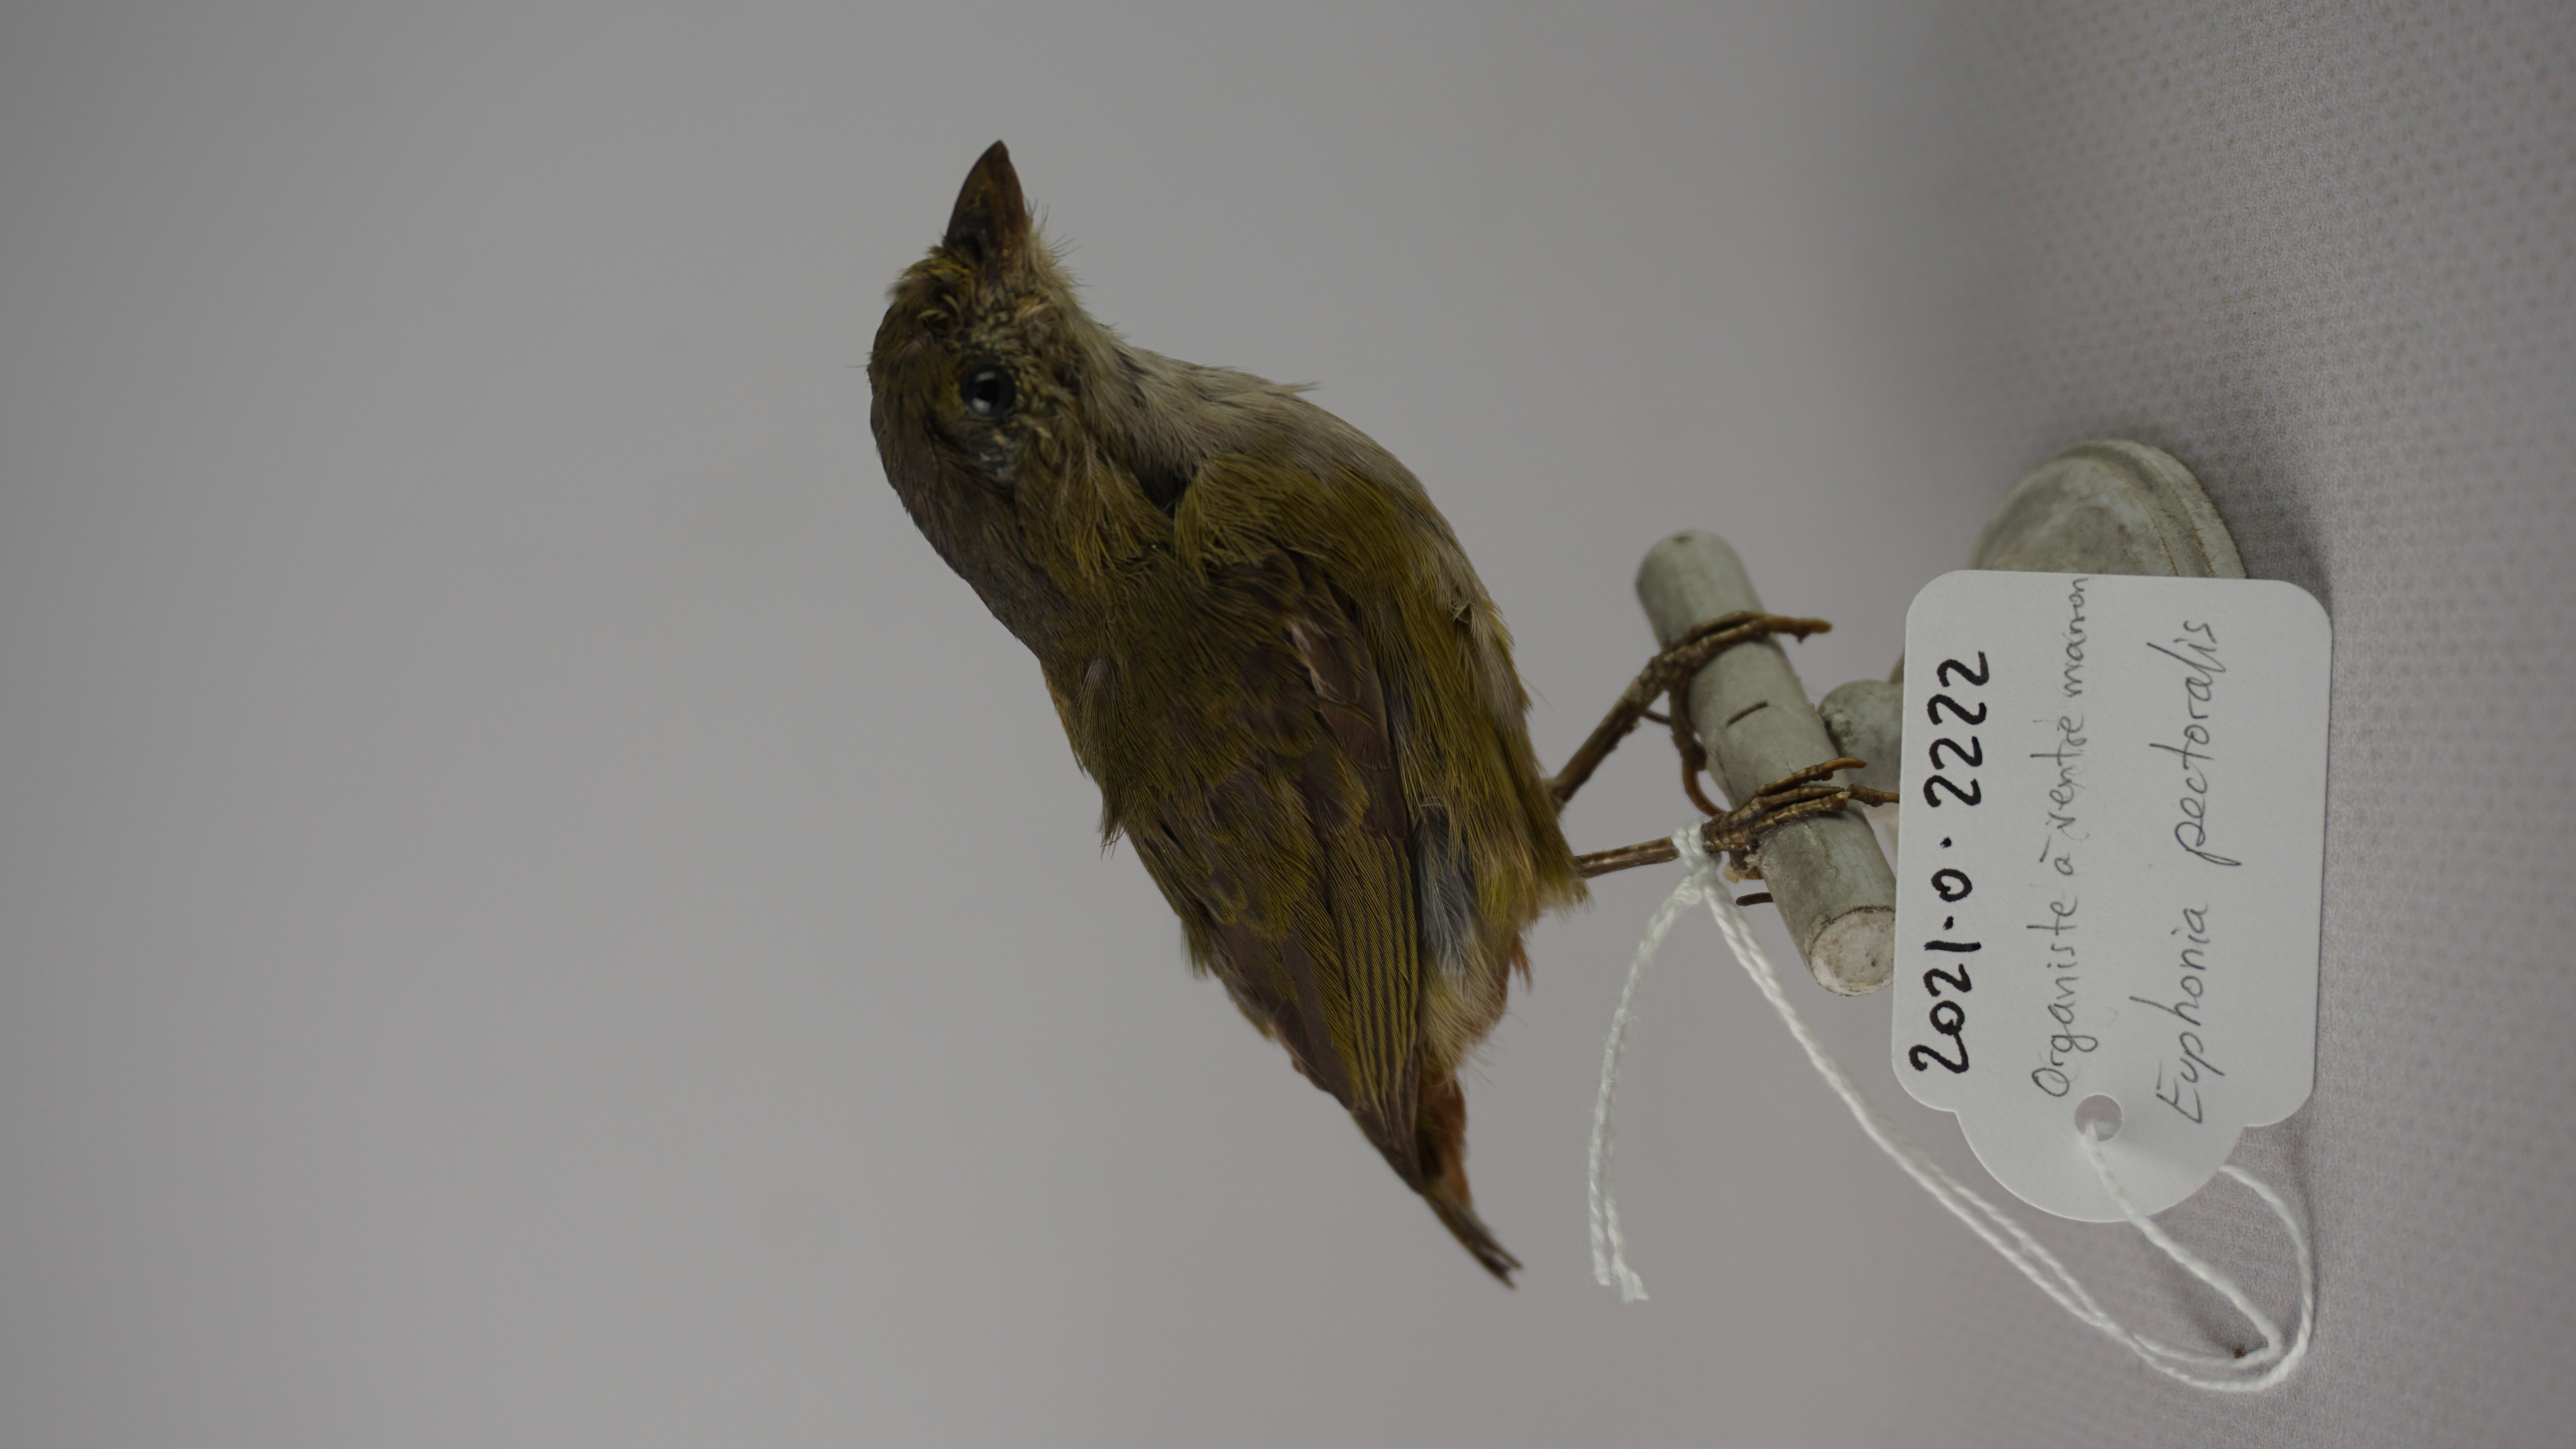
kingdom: Animalia
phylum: Chordata
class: Aves
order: Passeriformes
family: Fringillidae
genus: Euphonia
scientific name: Euphonia pectoralis
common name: Chestnut-bellied euphonia
